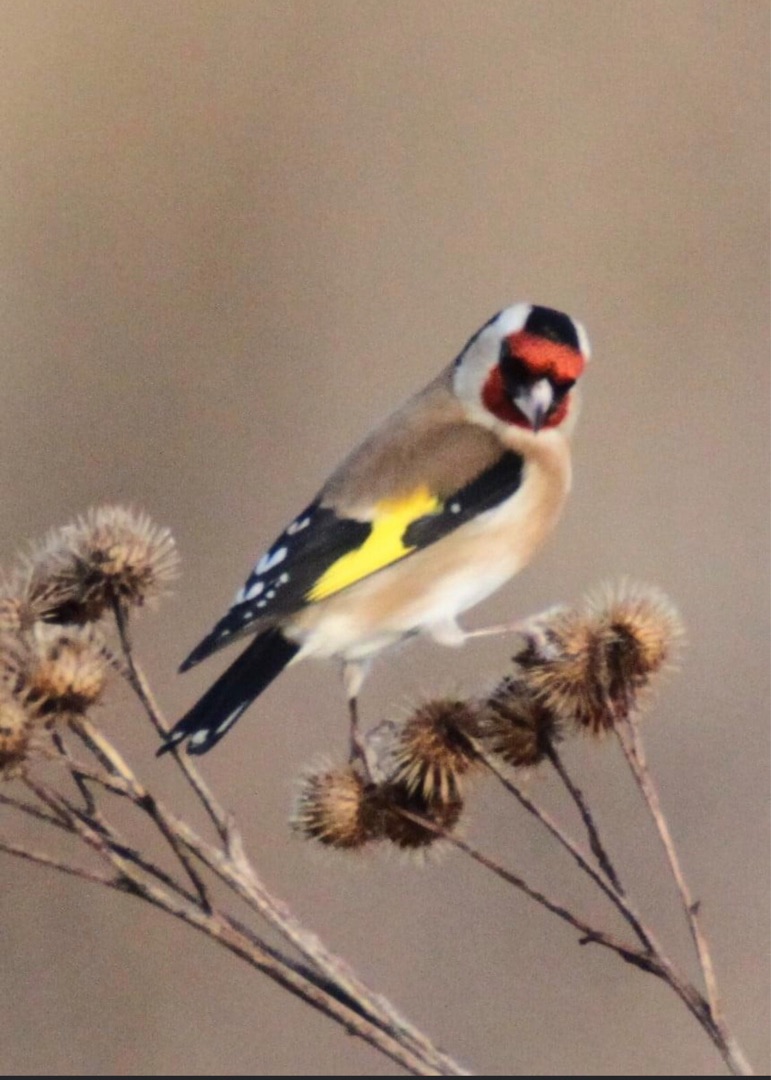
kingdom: Animalia
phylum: Chordata
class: Aves
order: Passeriformes
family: Fringillidae
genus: Carduelis
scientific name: Carduelis carduelis
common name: Stillits
